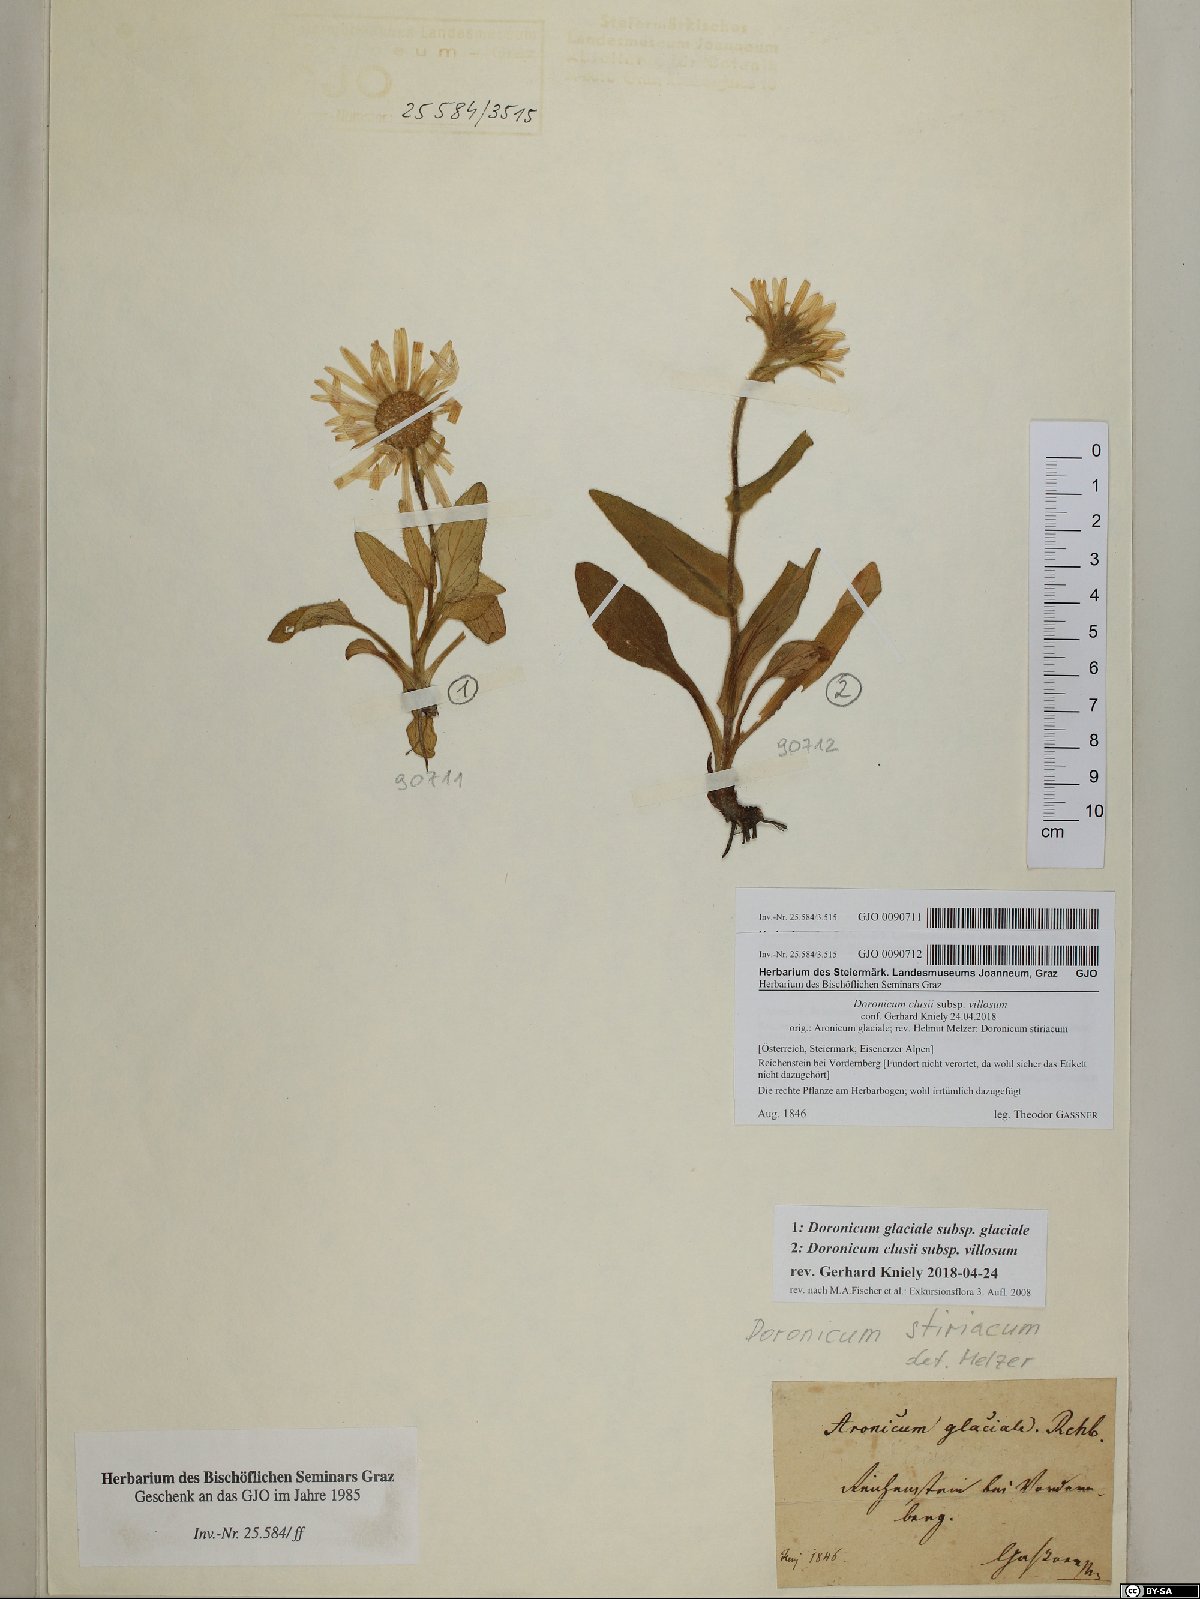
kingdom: Plantae
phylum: Tracheophyta
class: Magnoliopsida
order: Asterales
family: Asteraceae
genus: Doronicum
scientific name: Doronicum clusii
